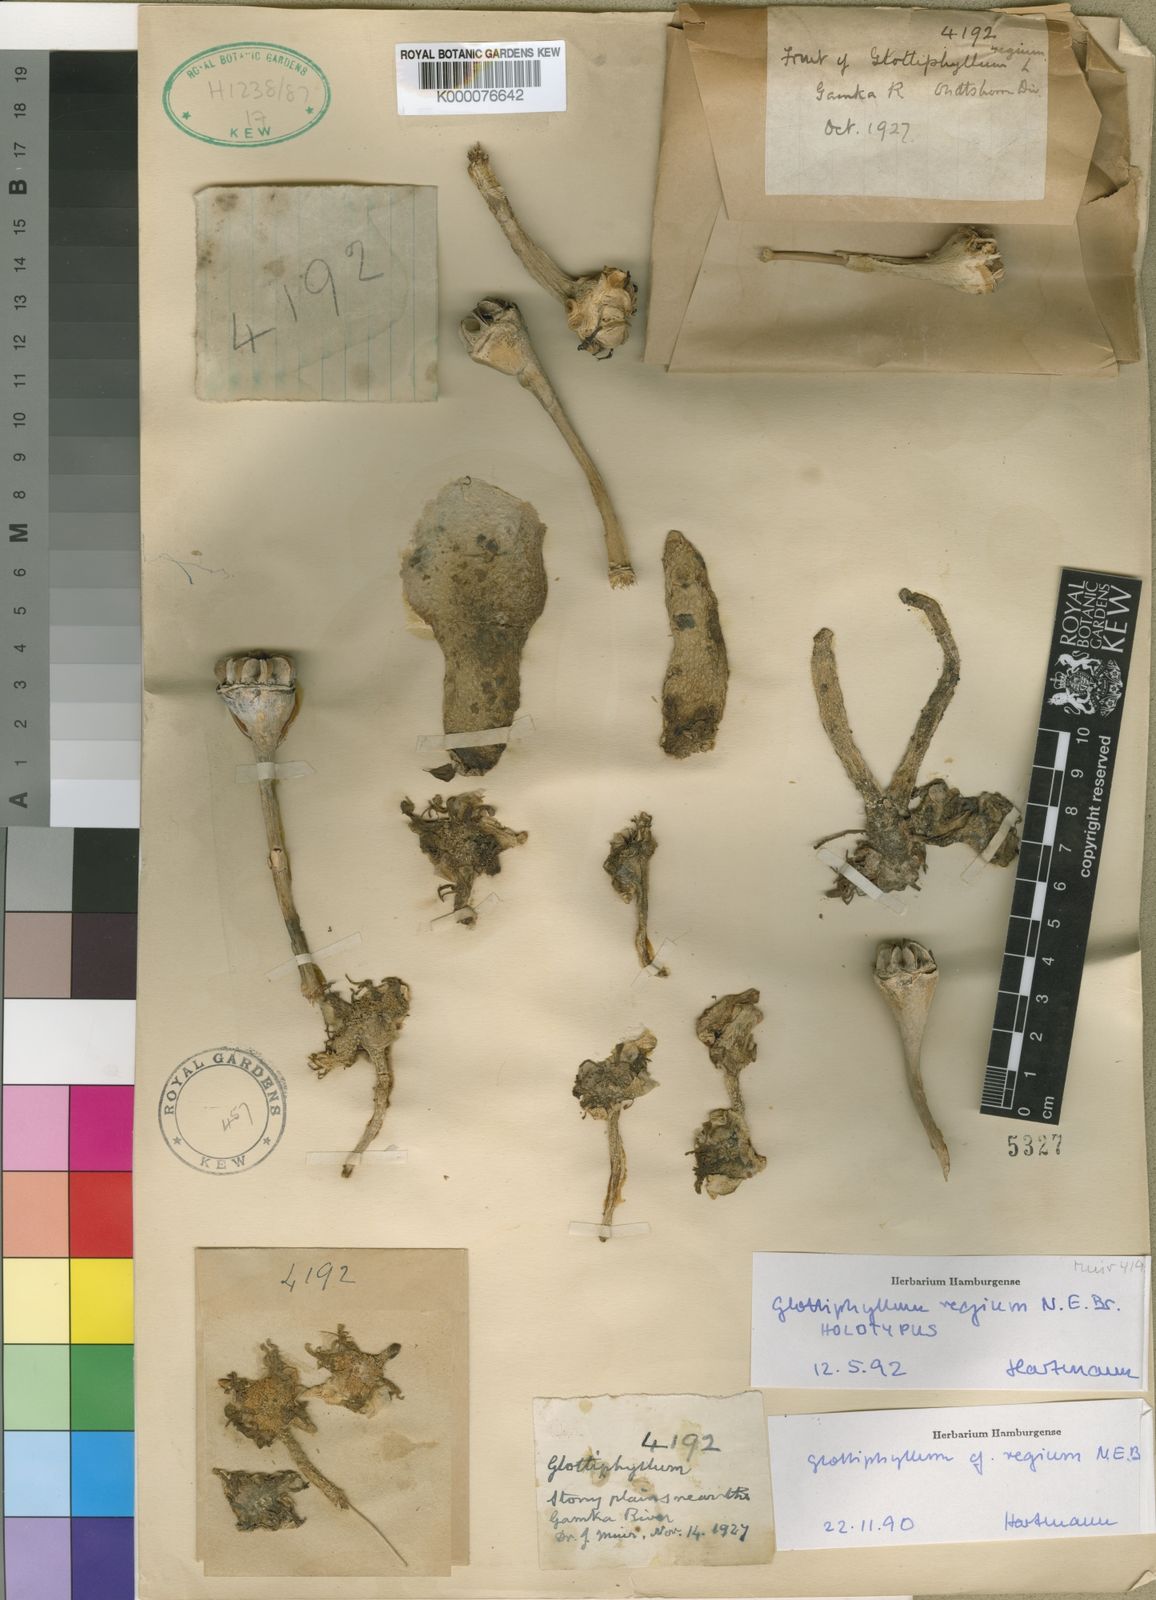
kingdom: Plantae
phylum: Tracheophyta
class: Magnoliopsida
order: Caryophyllales
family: Aizoaceae
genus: Glottiphyllum
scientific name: Glottiphyllum regium
